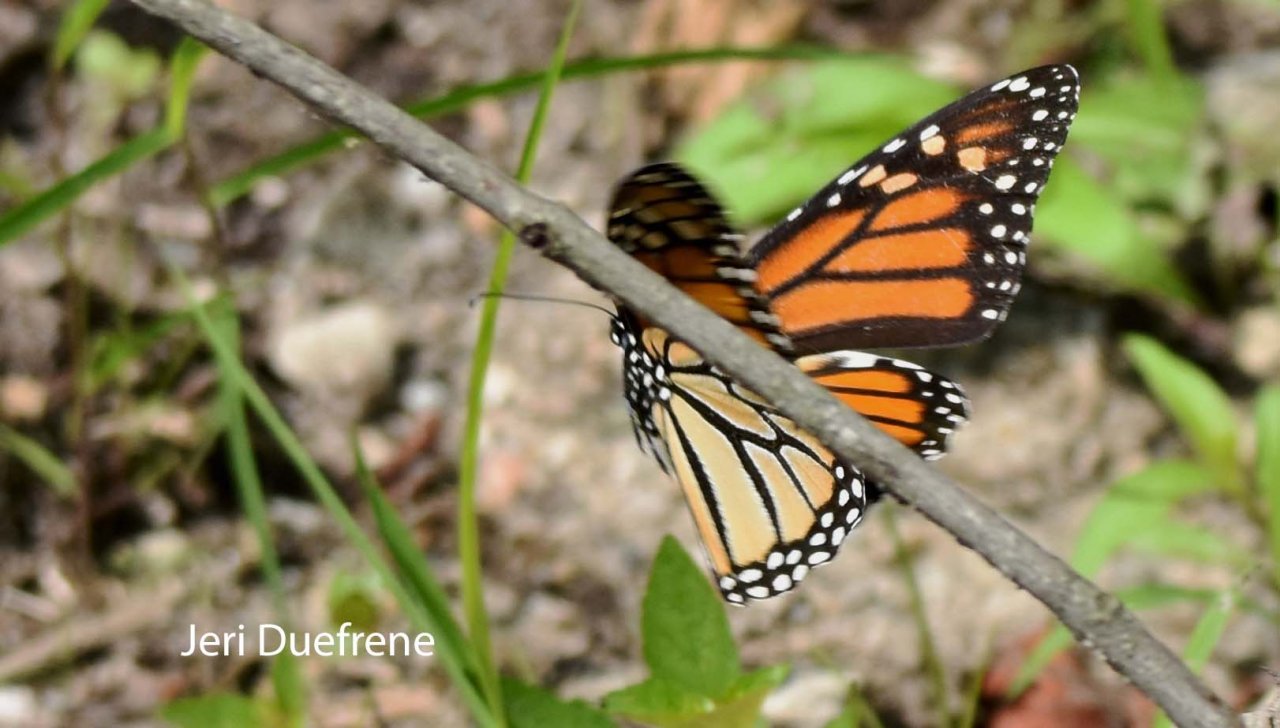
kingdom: Animalia
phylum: Arthropoda
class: Insecta
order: Lepidoptera
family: Nymphalidae
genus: Danaus
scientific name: Danaus plexippus
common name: Monarch
